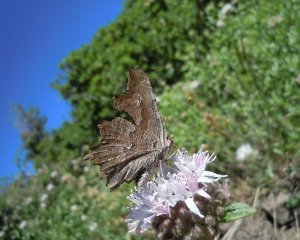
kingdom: Animalia
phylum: Arthropoda
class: Insecta
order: Lepidoptera
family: Nymphalidae
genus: Polygonia
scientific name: Polygonia gracilis
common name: Hoary Comma
